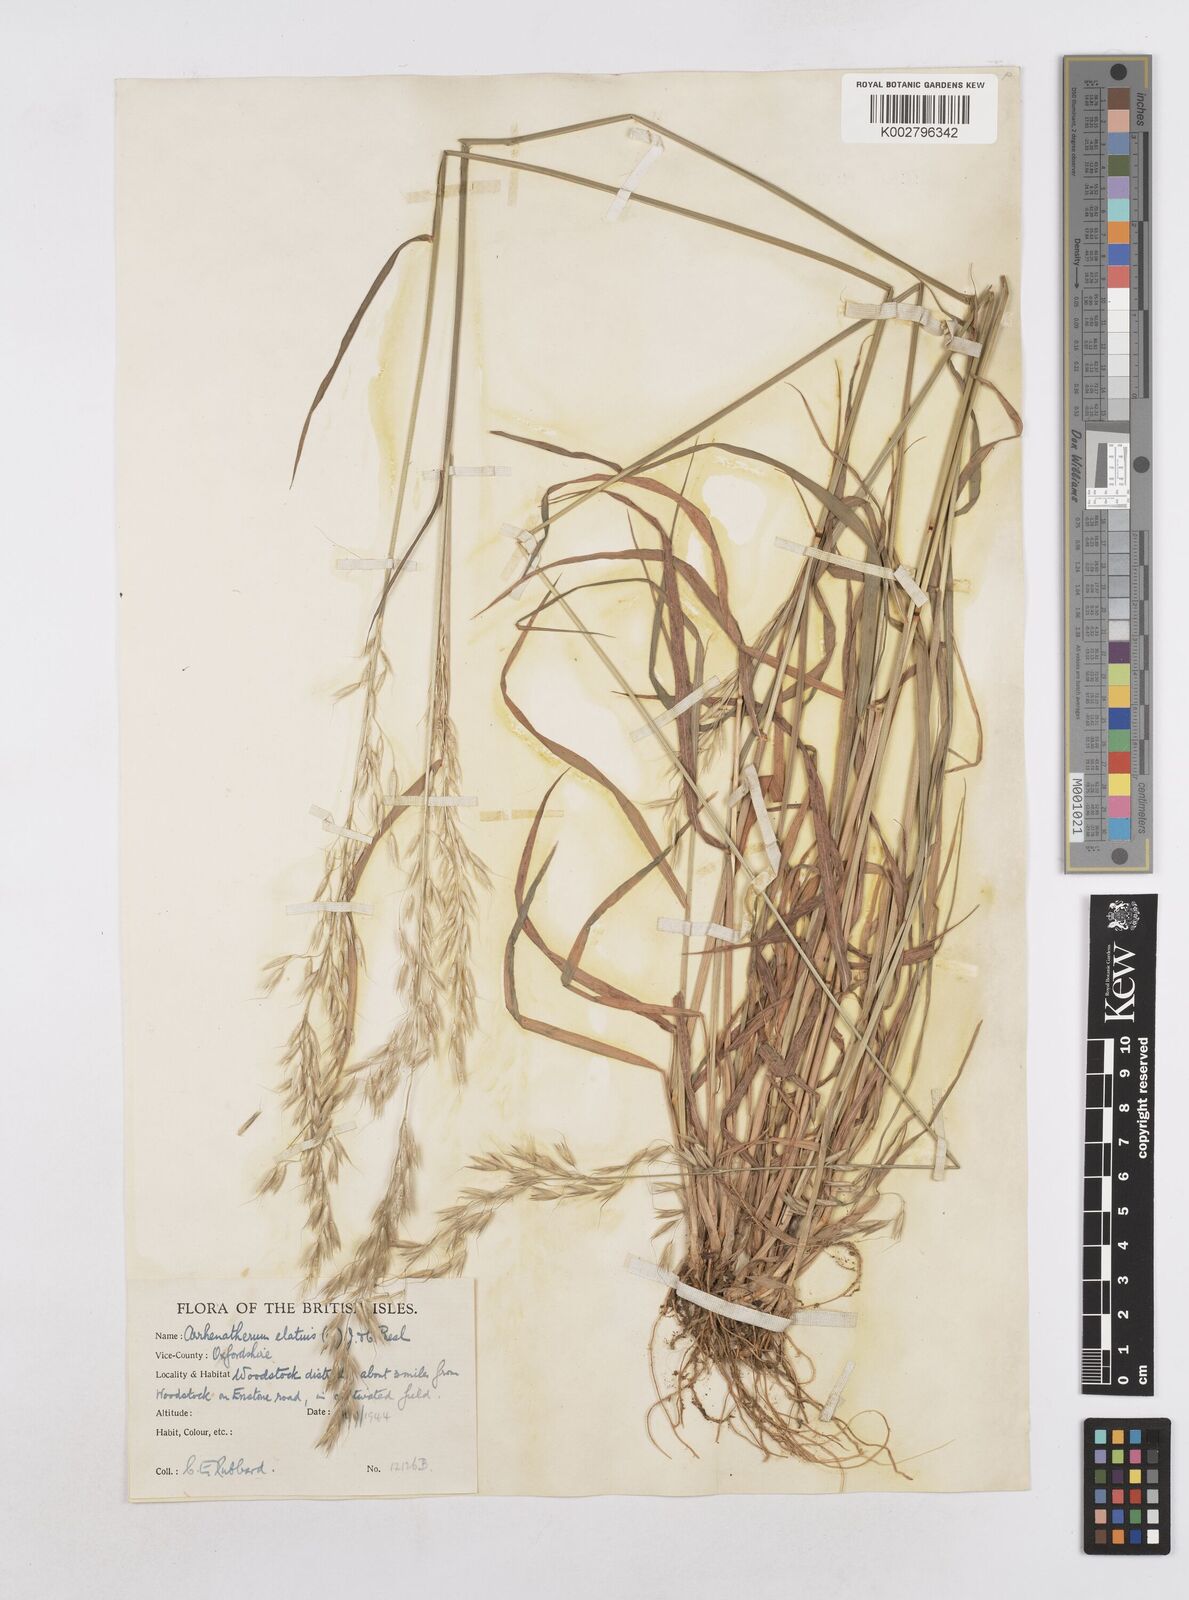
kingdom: Plantae
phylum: Tracheophyta
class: Liliopsida
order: Poales
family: Poaceae
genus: Arrhenatherum
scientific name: Arrhenatherum elatius
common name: Tall oatgrass
